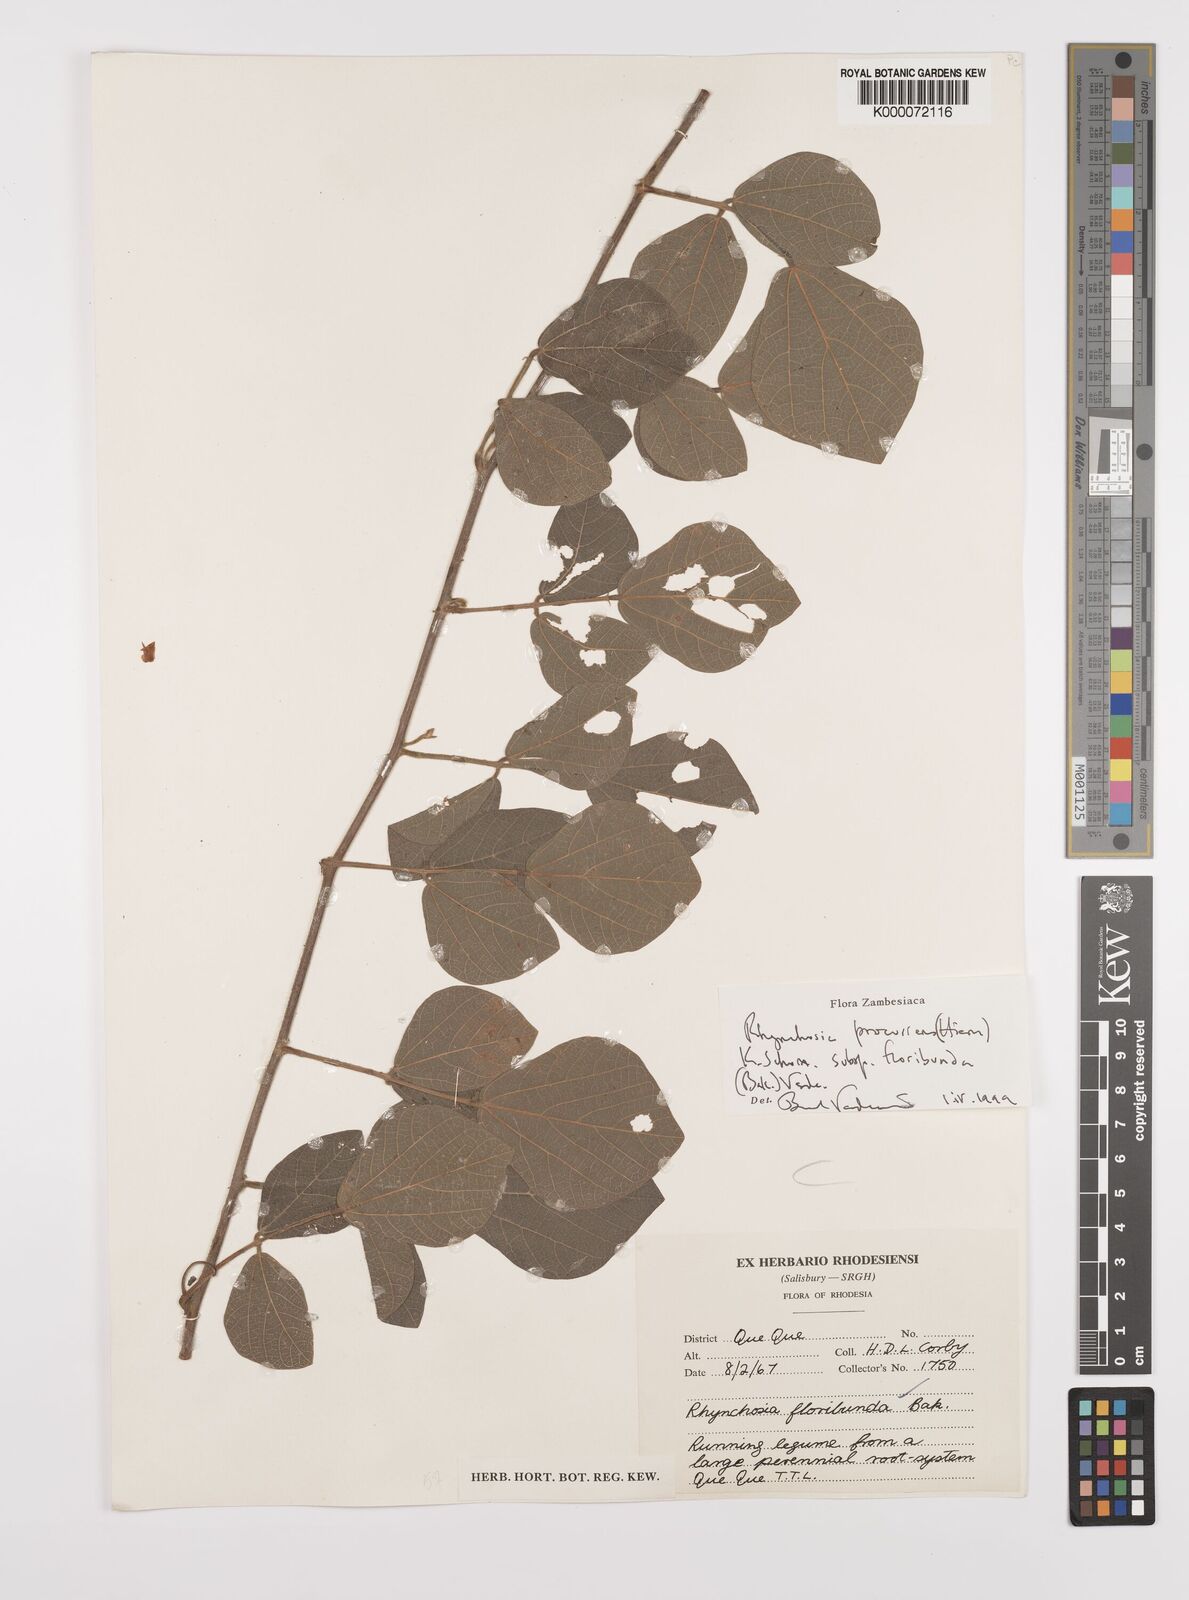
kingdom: Plantae
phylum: Tracheophyta
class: Magnoliopsida
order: Fabales
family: Fabaceae
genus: Rhynchosia
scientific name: Rhynchosia procurrens
